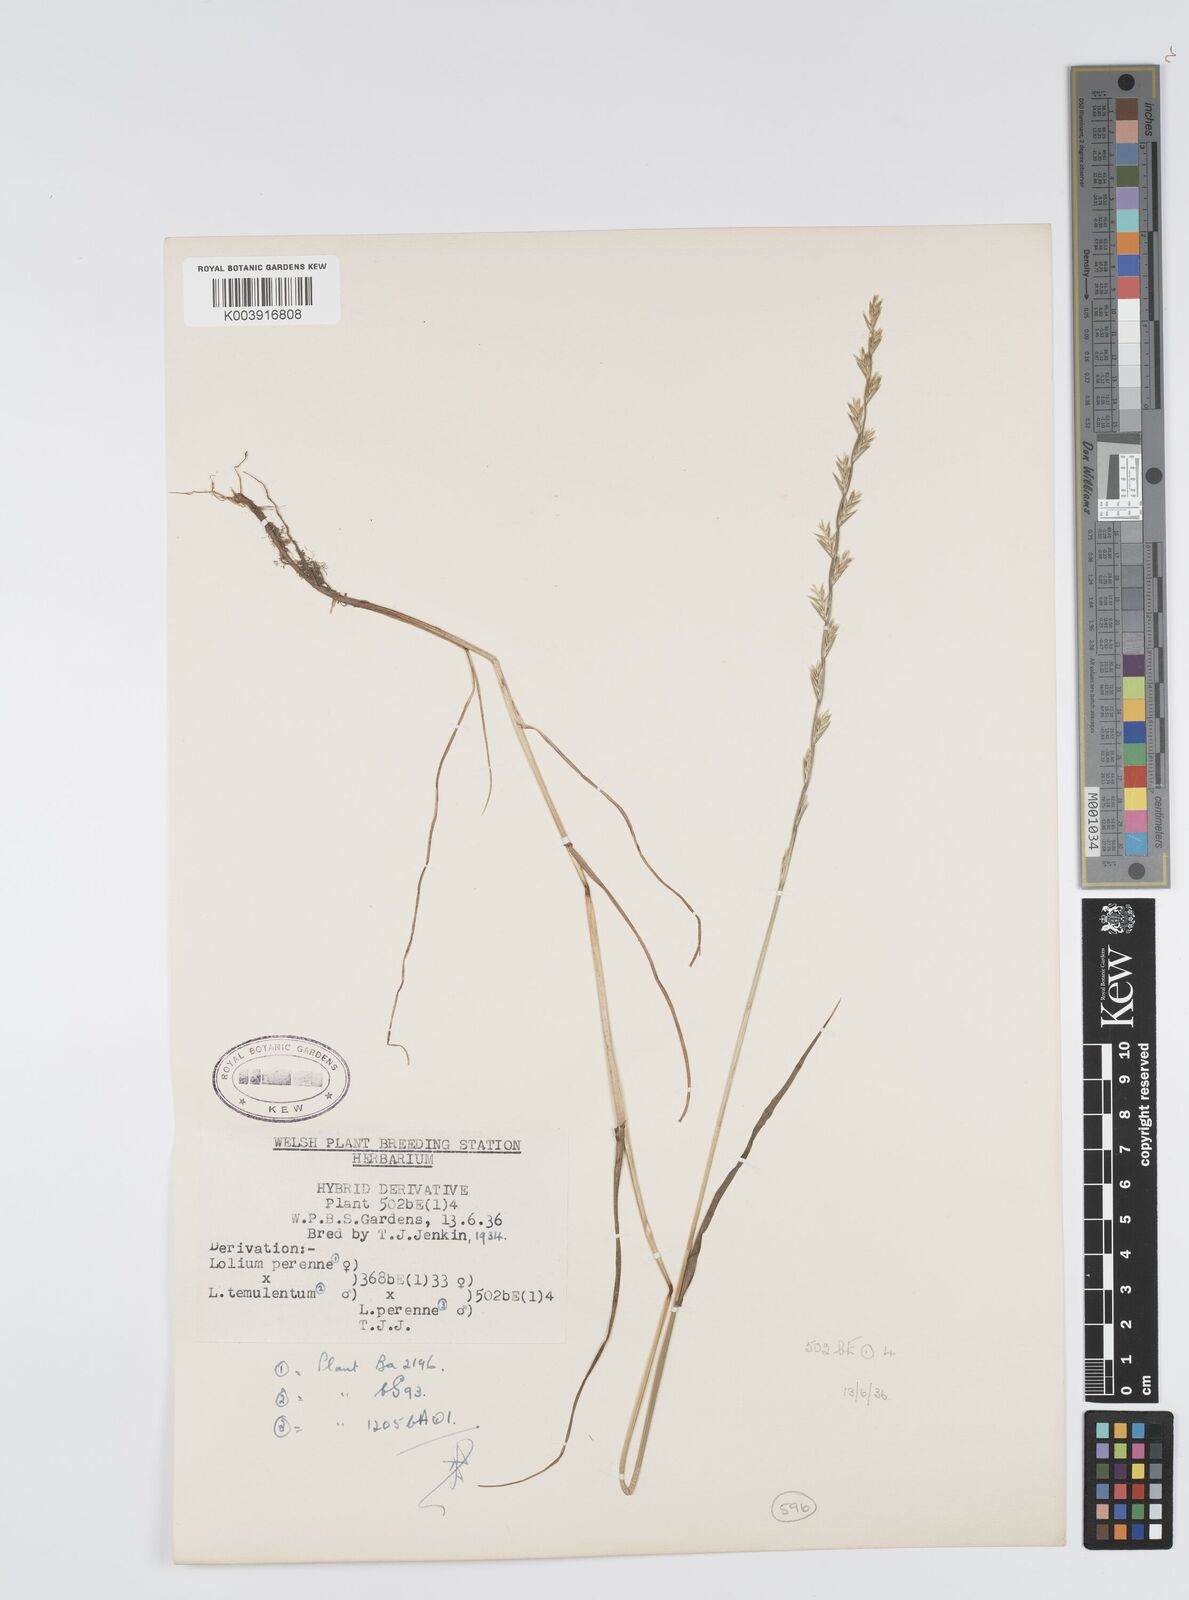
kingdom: Plantae
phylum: Tracheophyta
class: Liliopsida
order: Poales
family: Poaceae
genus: Lolium
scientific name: Lolium perenne
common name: Perennial ryegrass
